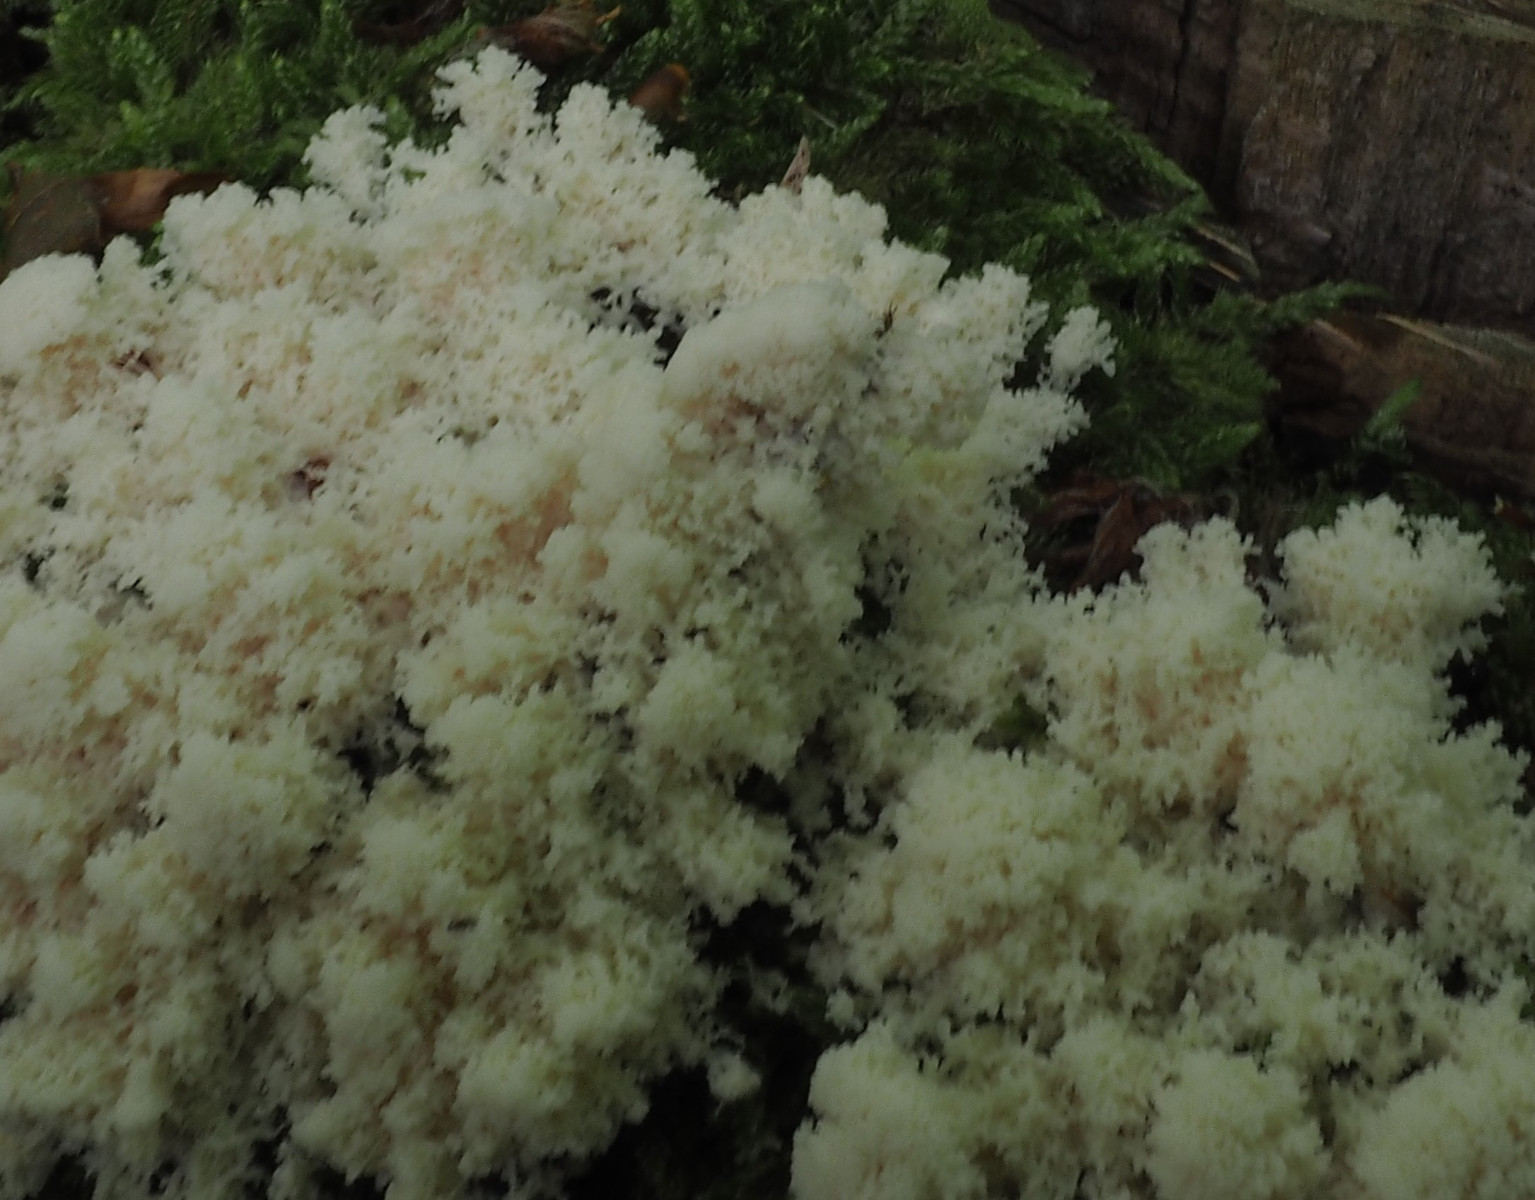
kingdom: Protozoa
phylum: Mycetozoa
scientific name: Mycetozoa
